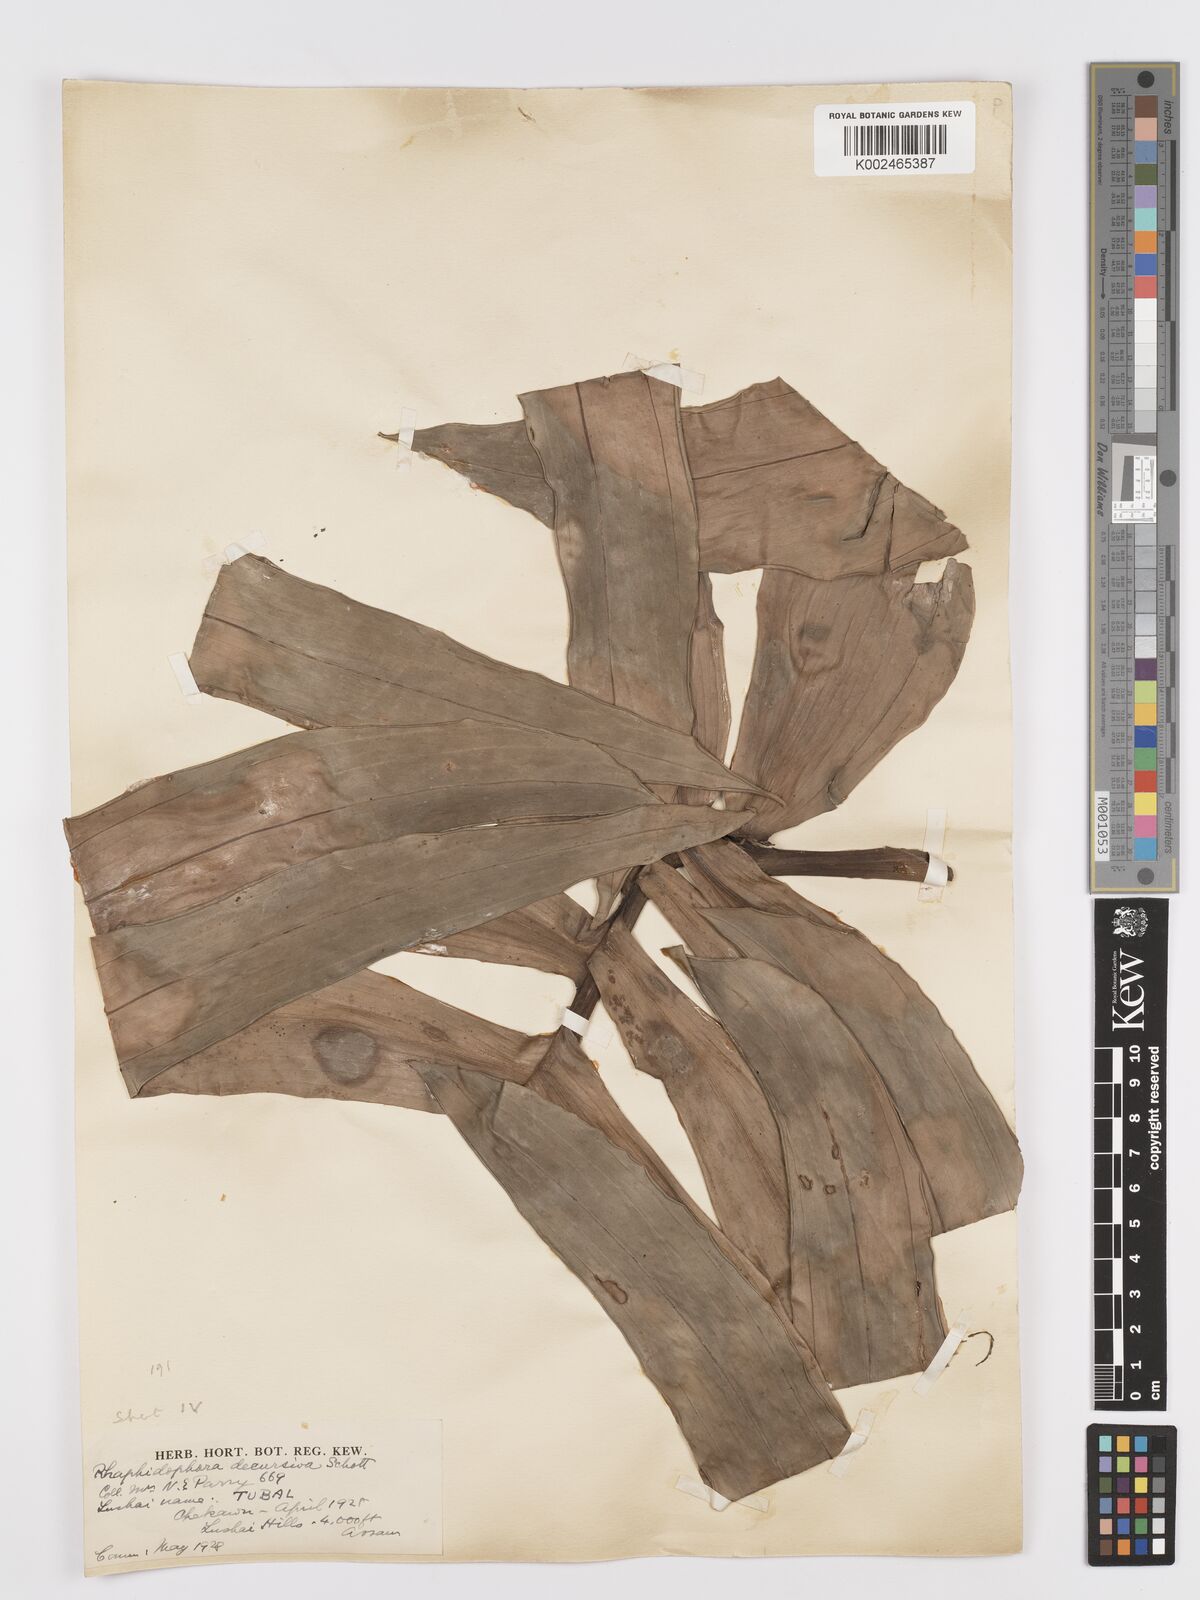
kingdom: Plantae
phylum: Tracheophyta
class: Liliopsida
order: Alismatales
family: Araceae
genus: Rhaphidophora
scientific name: Rhaphidophora decursiva
